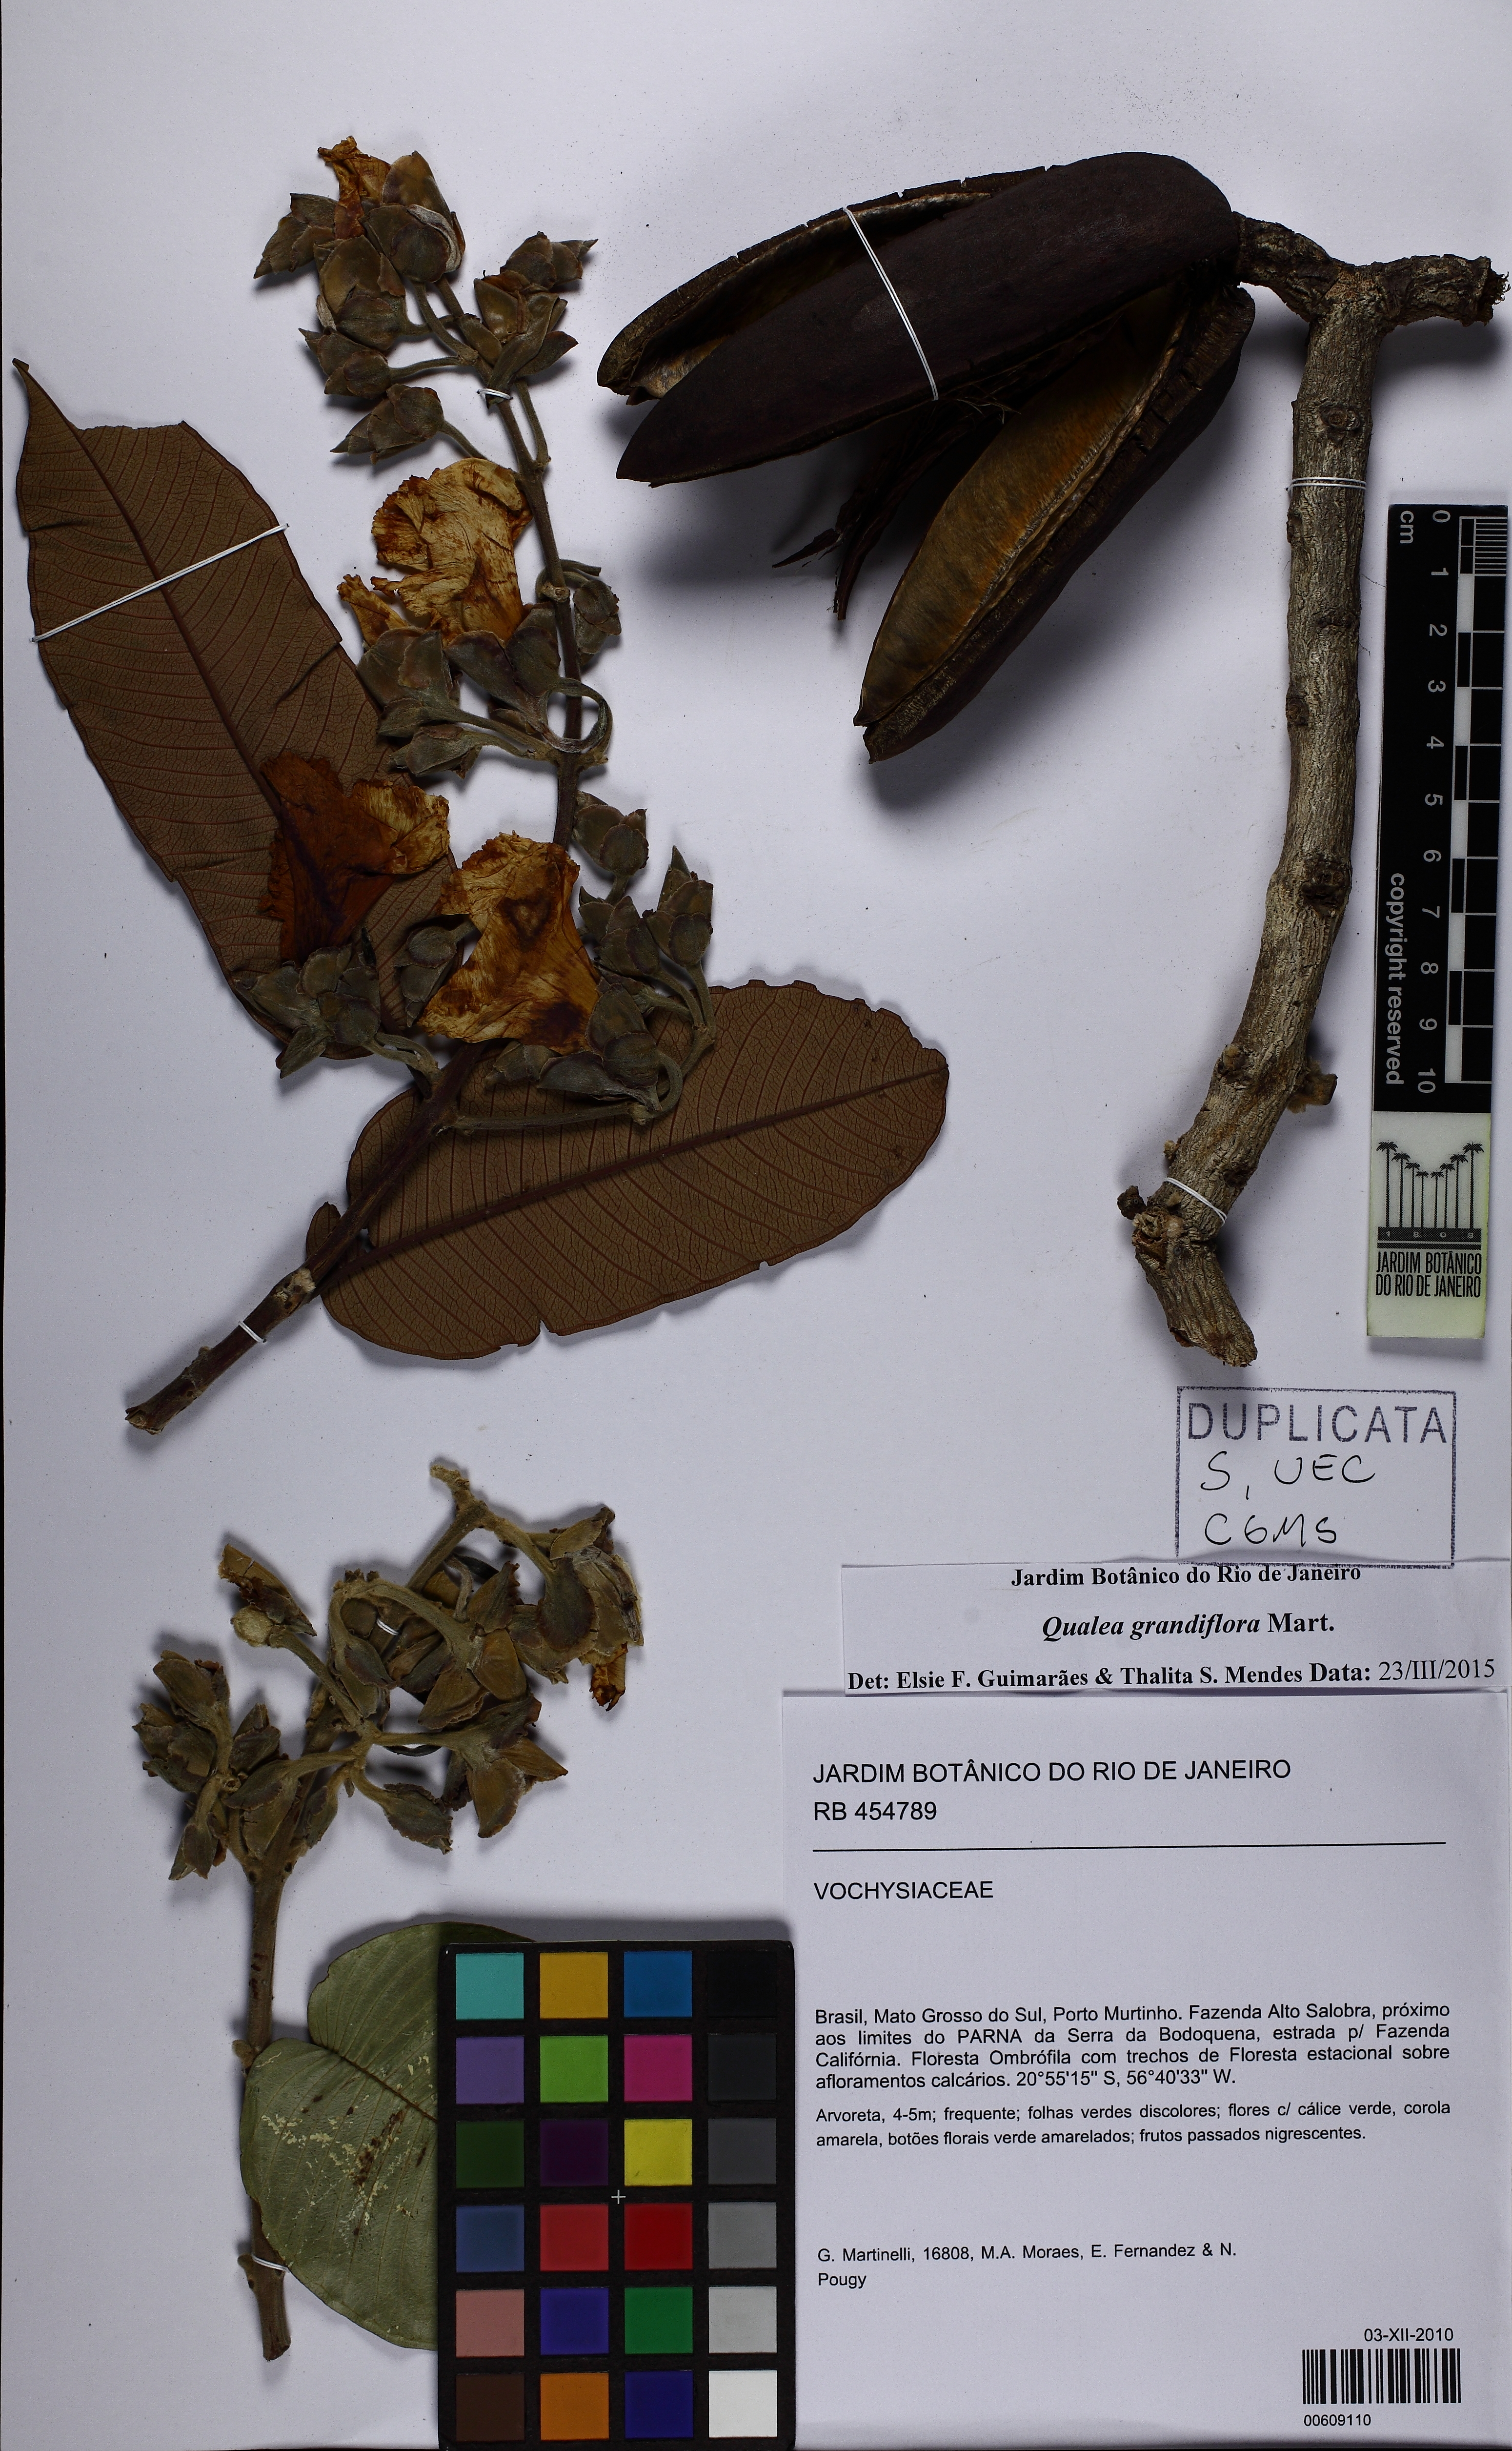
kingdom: Plantae
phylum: Tracheophyta
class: Magnoliopsida
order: Myrtales
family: Vochysiaceae
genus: Qualea
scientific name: Qualea grandiflora
